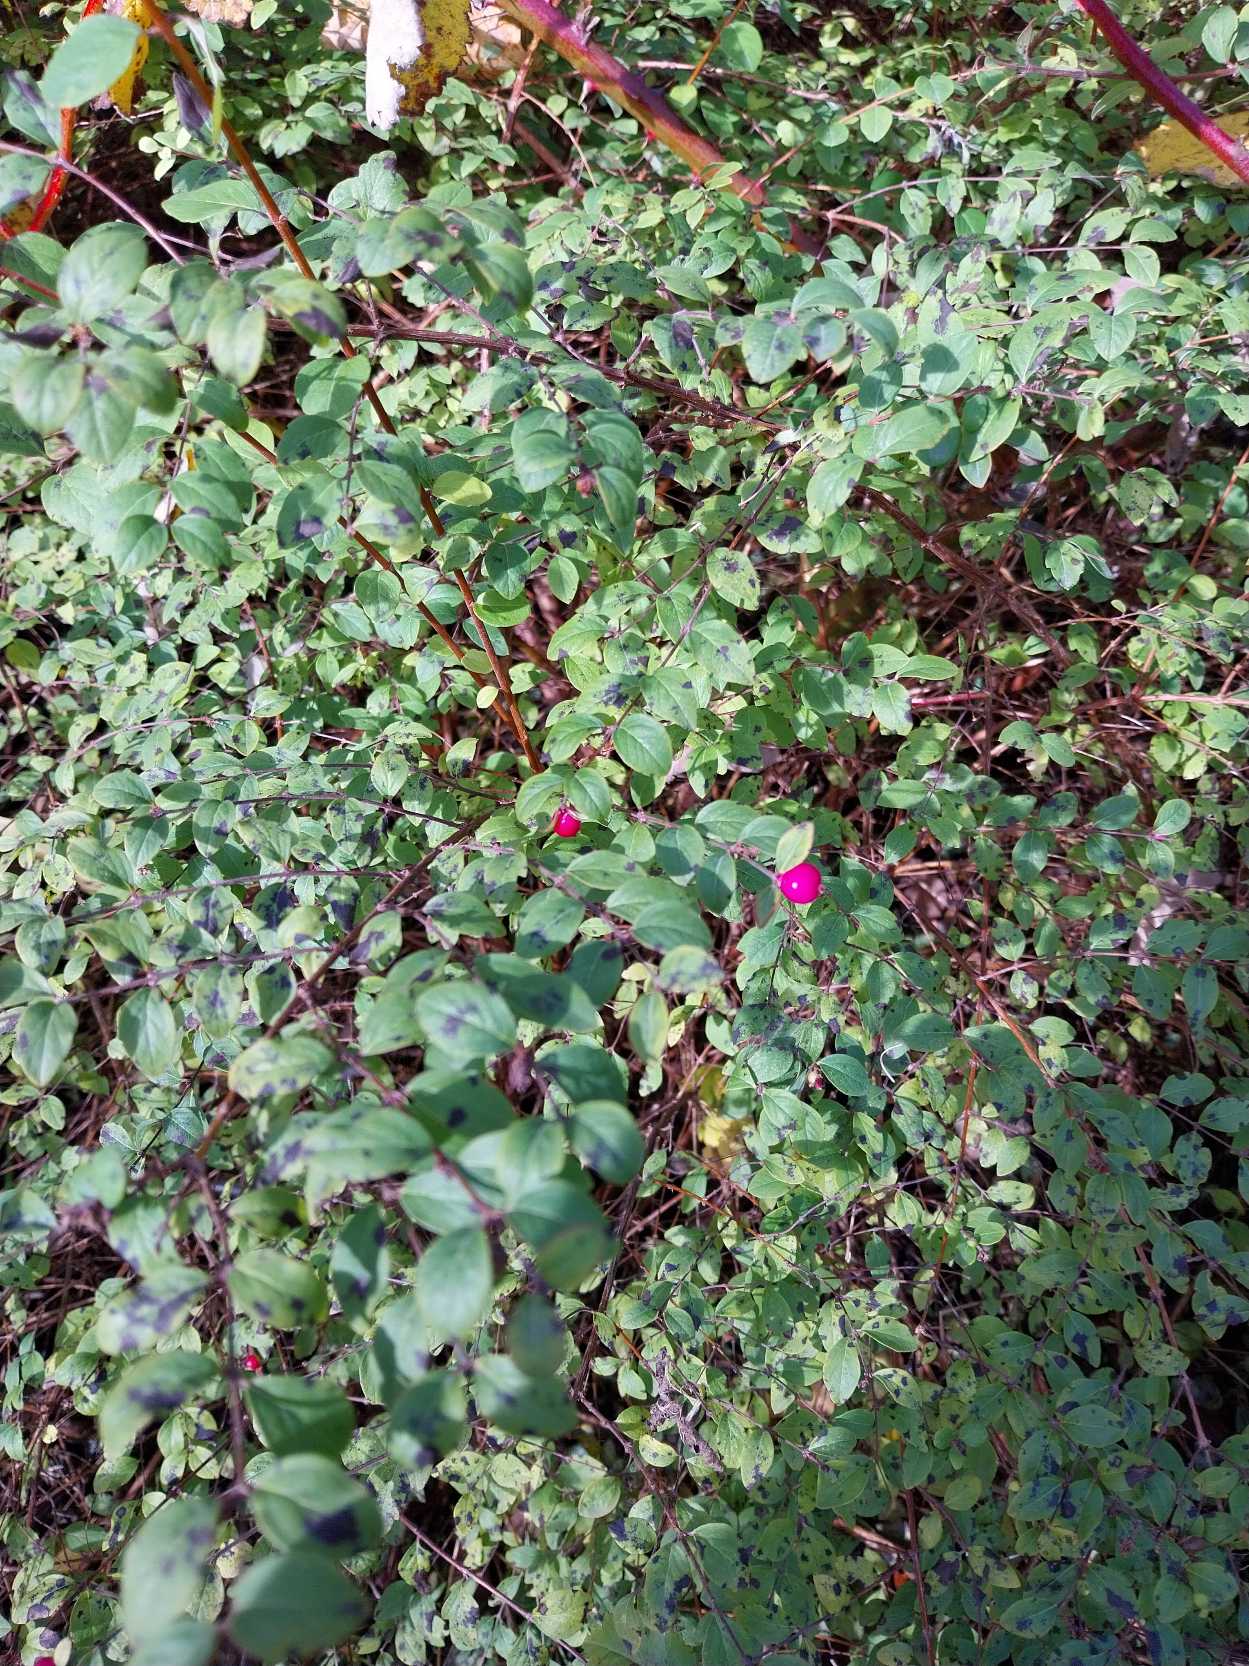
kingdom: Plantae
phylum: Tracheophyta
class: Magnoliopsida
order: Dipsacales
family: Caprifoliaceae
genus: Symphoricarpos
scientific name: Symphoricarpos chenaultii
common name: Rød snebær
